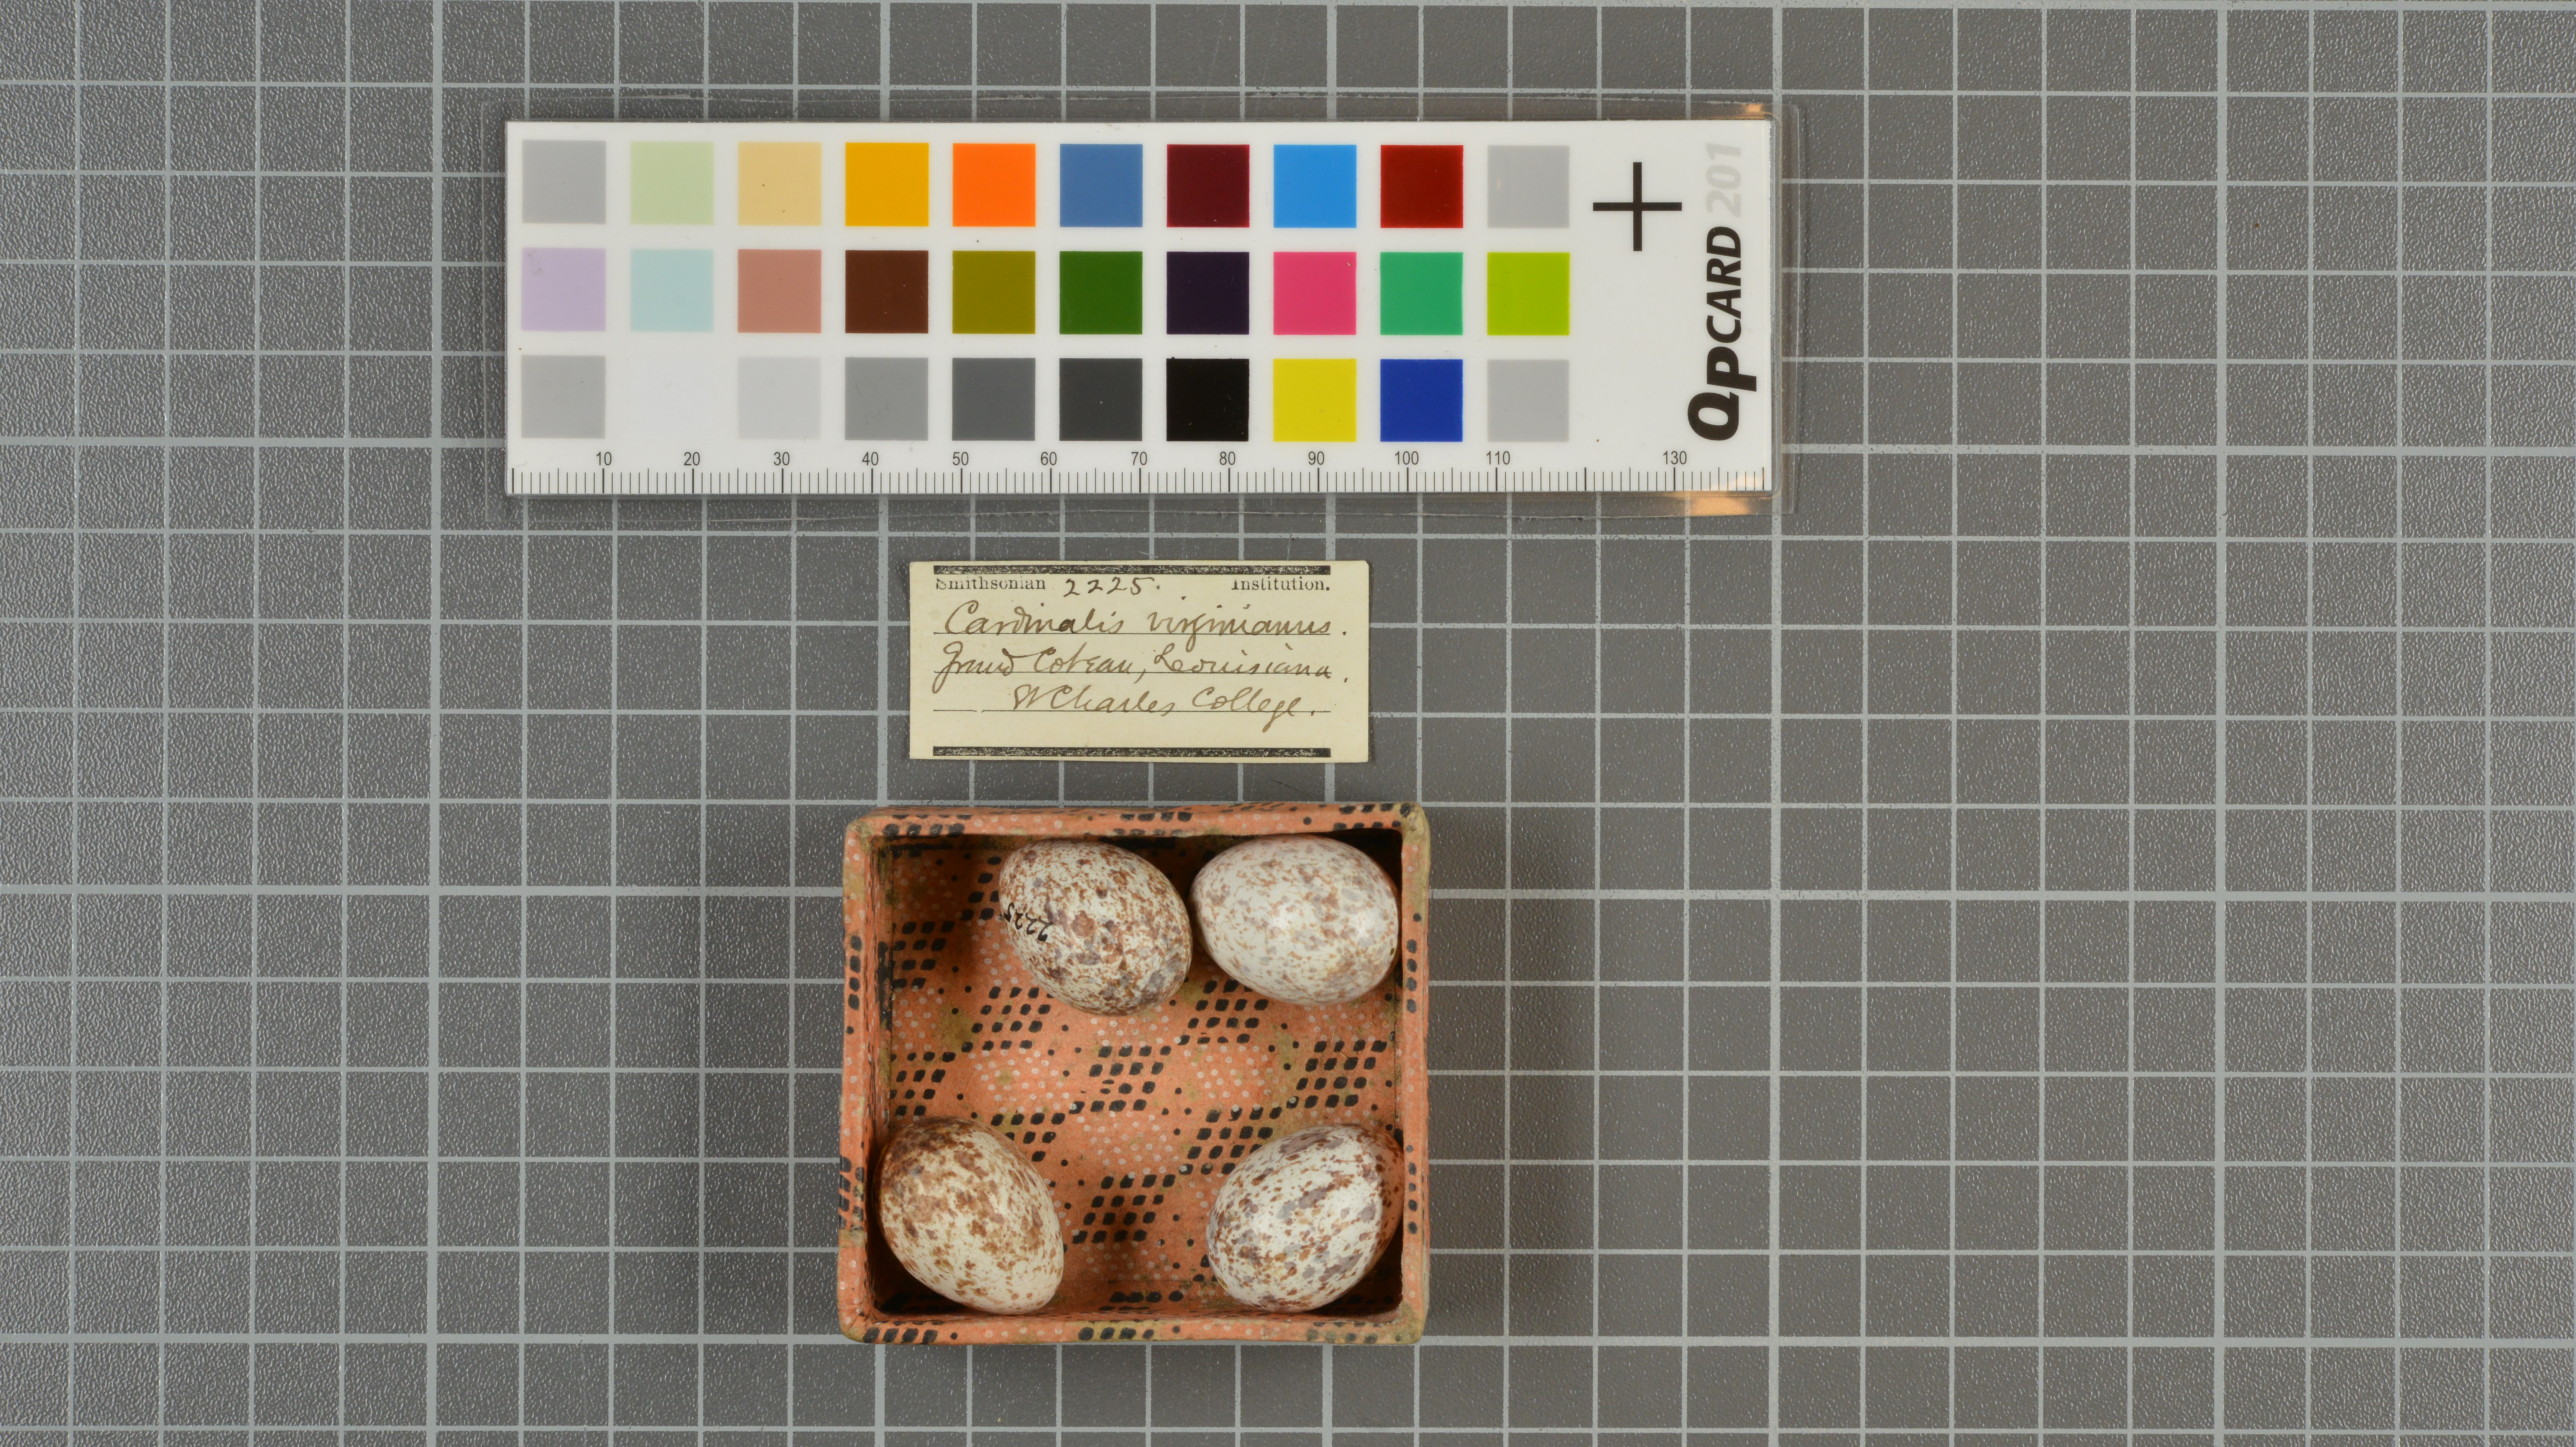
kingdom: Animalia
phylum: Chordata
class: Aves
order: Passeriformes
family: Cardinalidae
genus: Cardinalis
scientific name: Cardinalis cardinalis
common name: Northern cardinal
